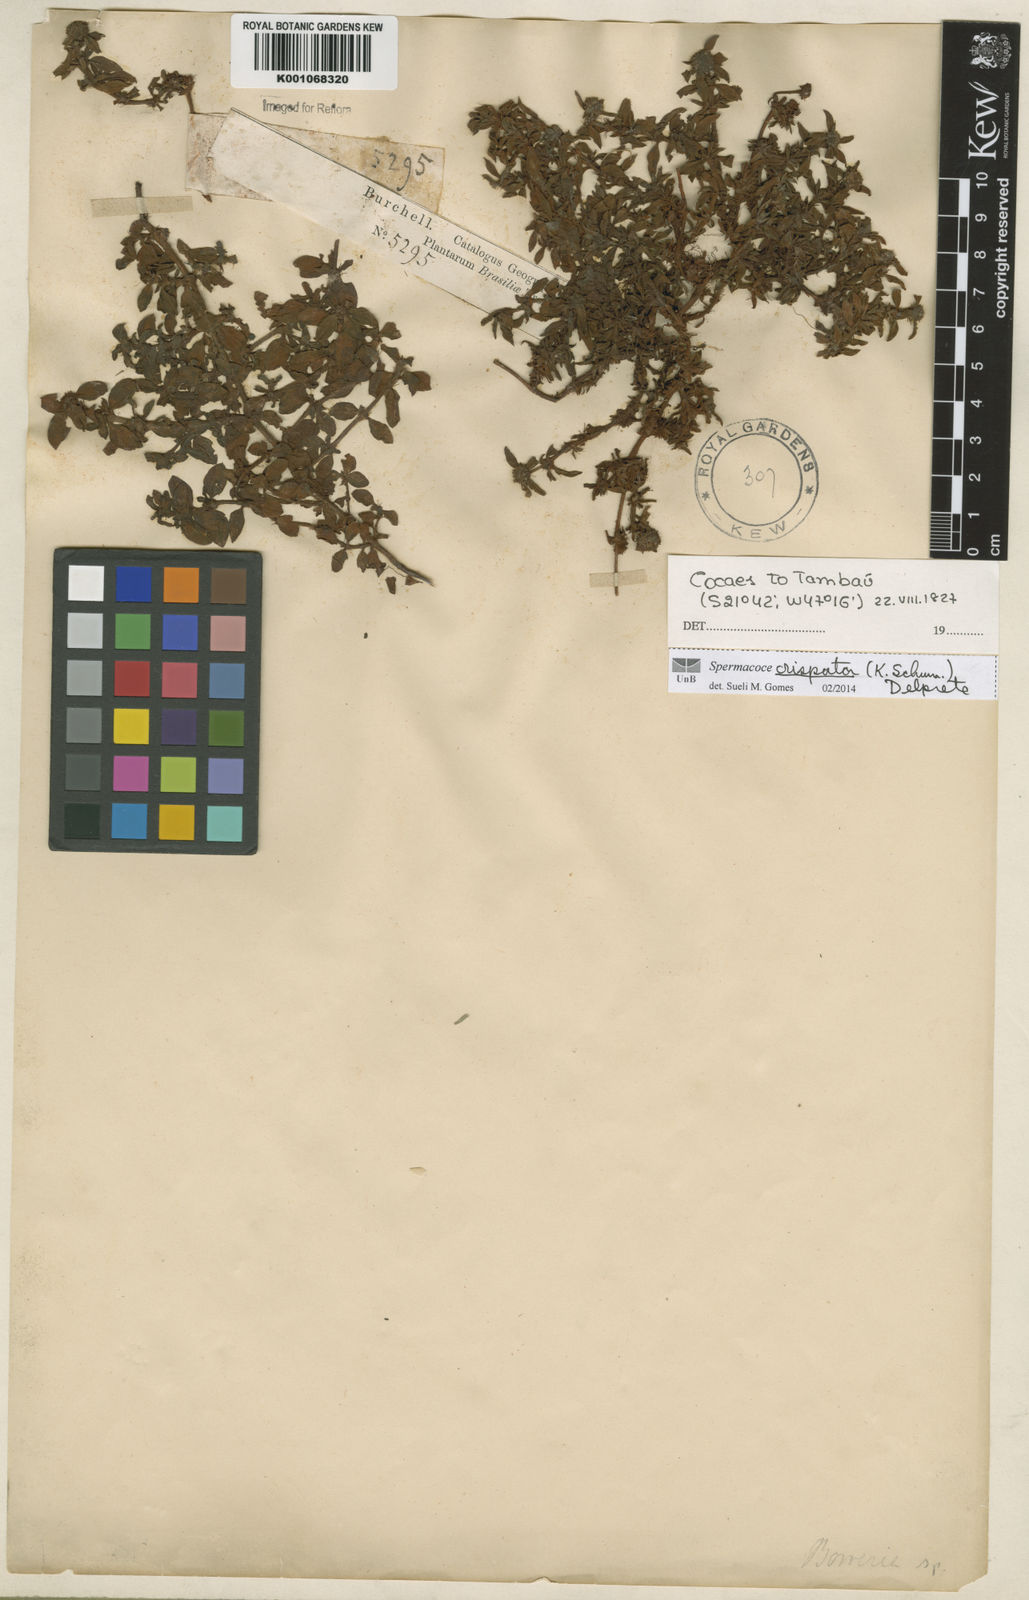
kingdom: Plantae
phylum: Tracheophyta
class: Magnoliopsida
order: Gentianales
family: Rubiaceae
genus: Spermacoce
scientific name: Spermacoce crispata
